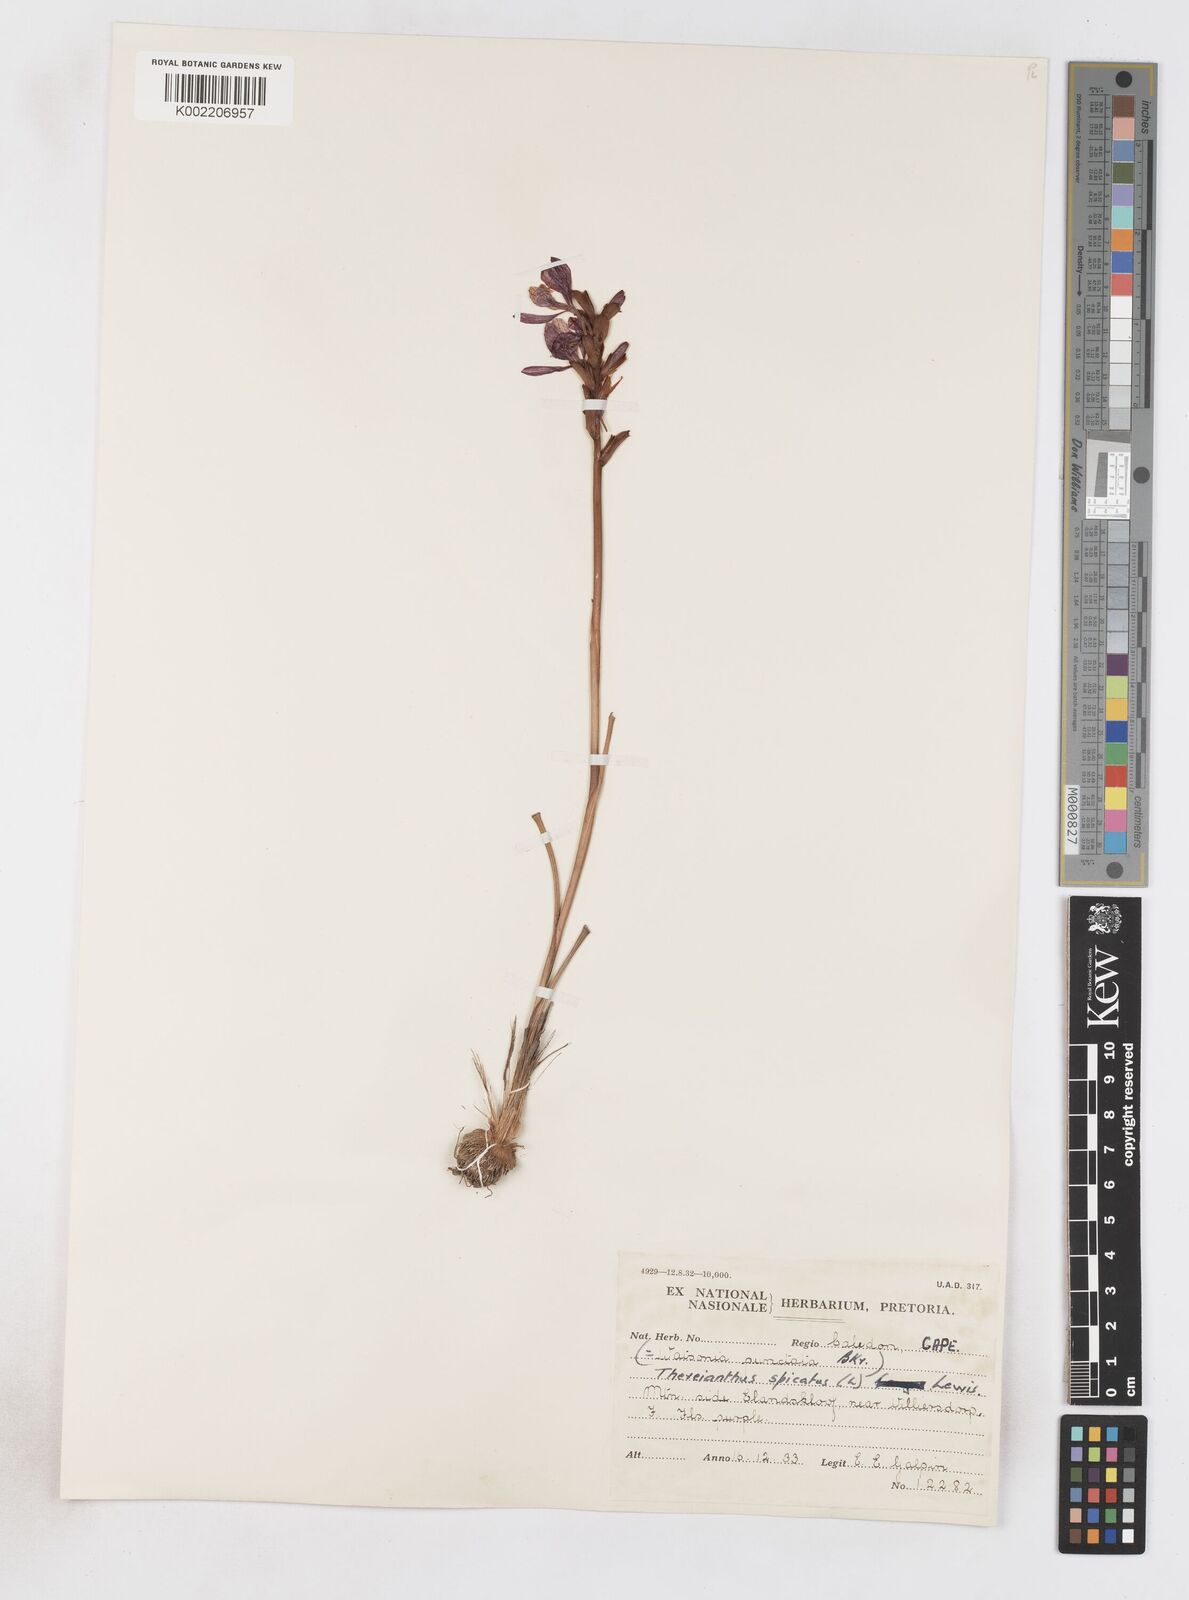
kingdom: Plantae
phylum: Tracheophyta
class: Liliopsida
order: Asparagales
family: Iridaceae
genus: Thereianthus
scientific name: Thereianthus spicatus
